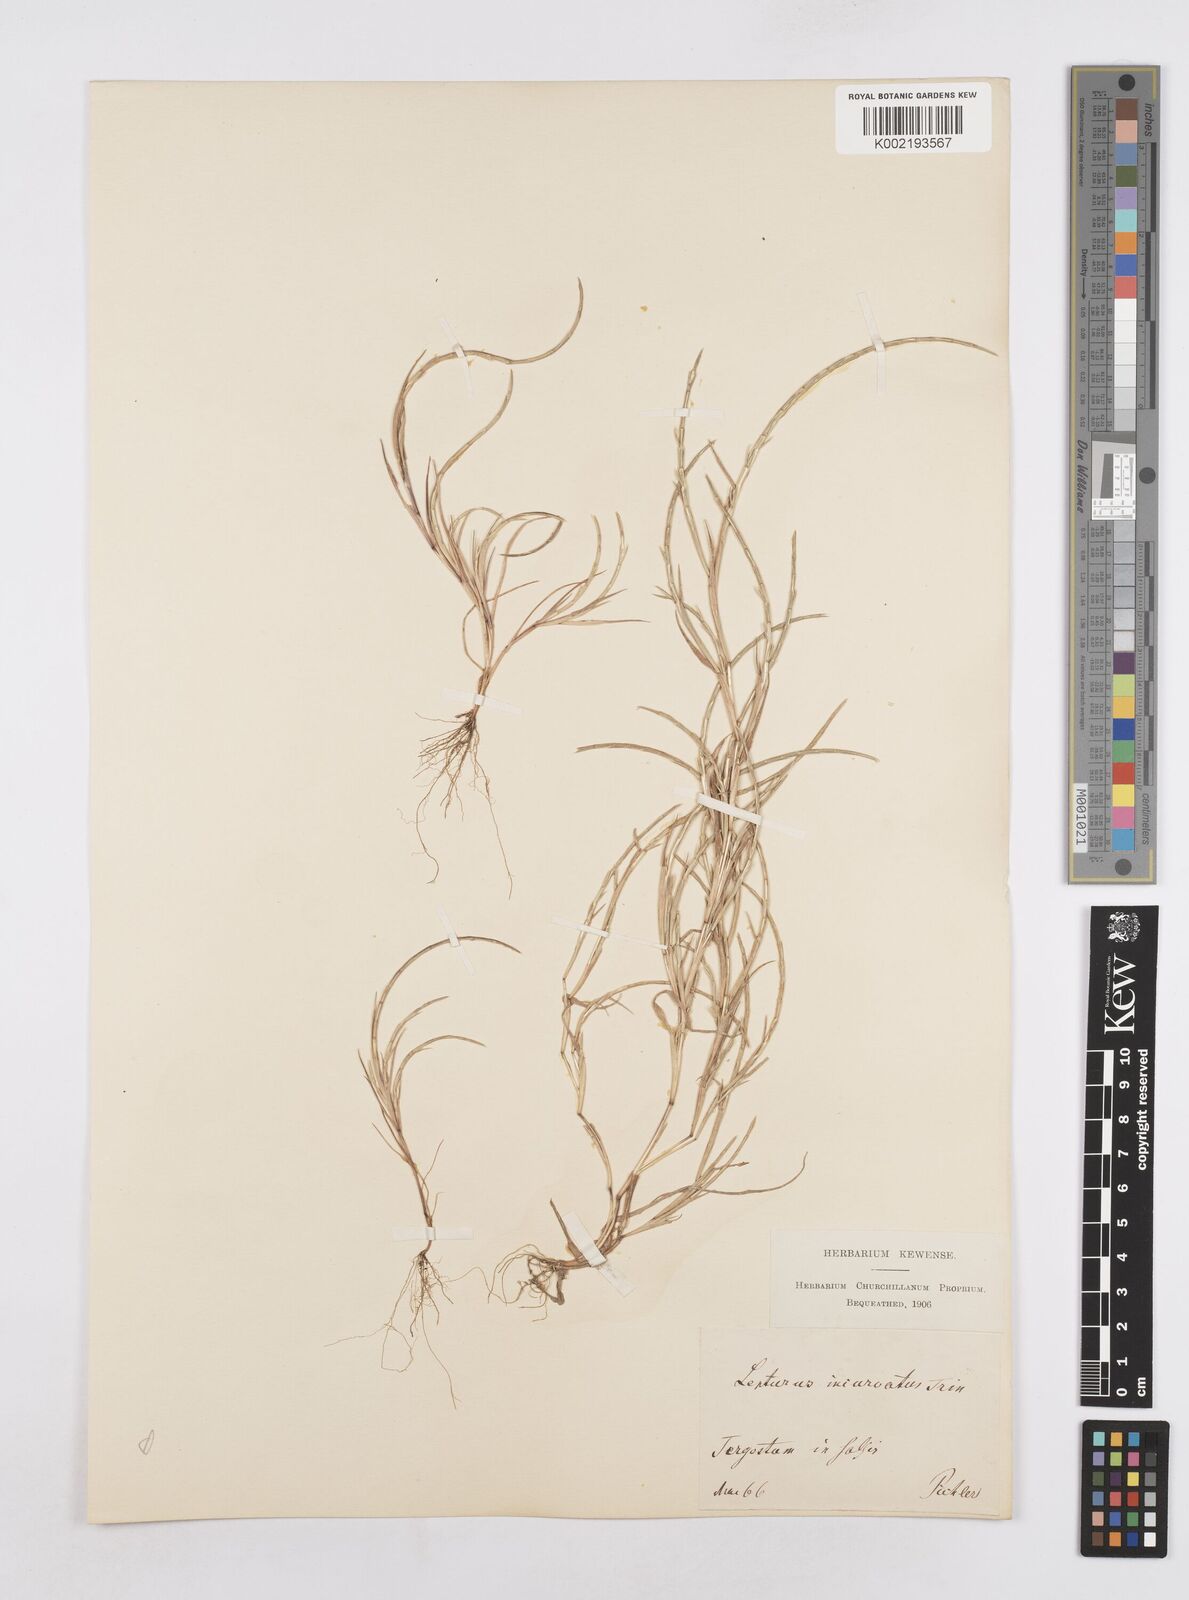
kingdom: Plantae
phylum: Tracheophyta
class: Liliopsida
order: Poales
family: Poaceae
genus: Parapholis
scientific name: Parapholis incurva
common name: Curved sicklegrass
